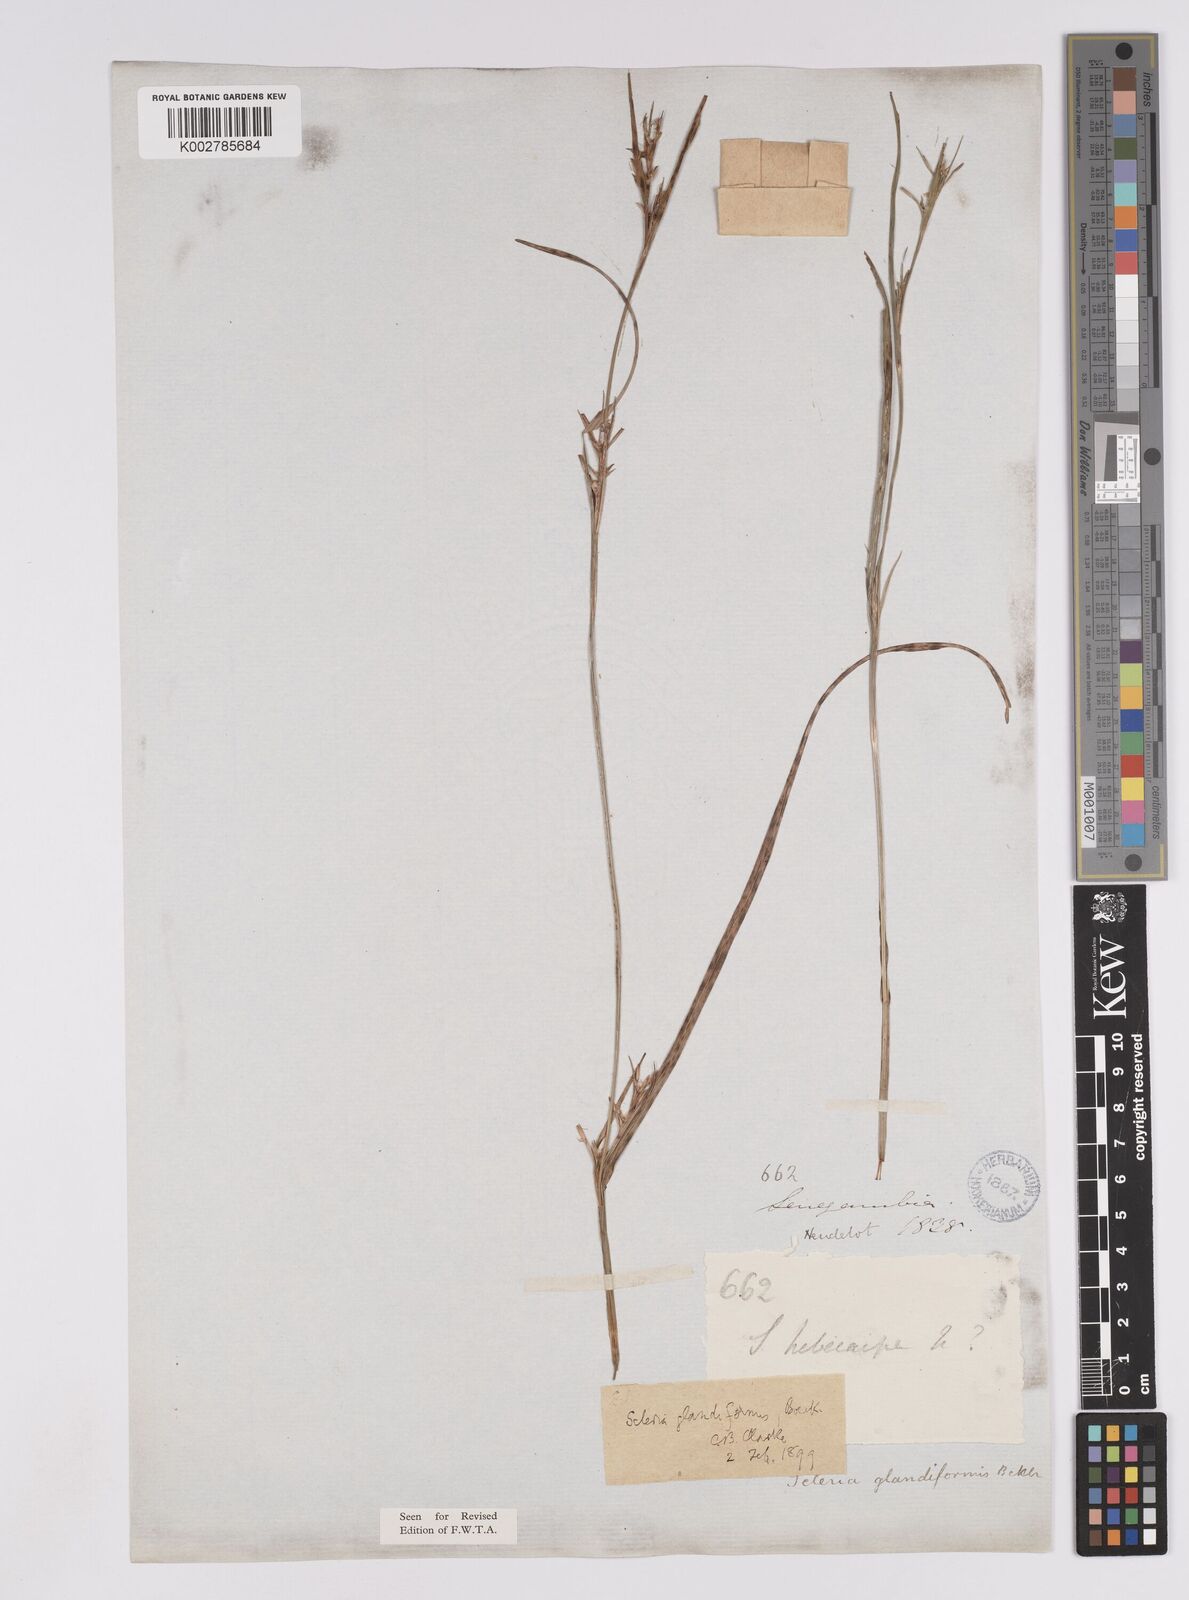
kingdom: Plantae
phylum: Tracheophyta
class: Liliopsida
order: Poales
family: Cyperaceae
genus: Scleria
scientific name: Scleria schimperiana
